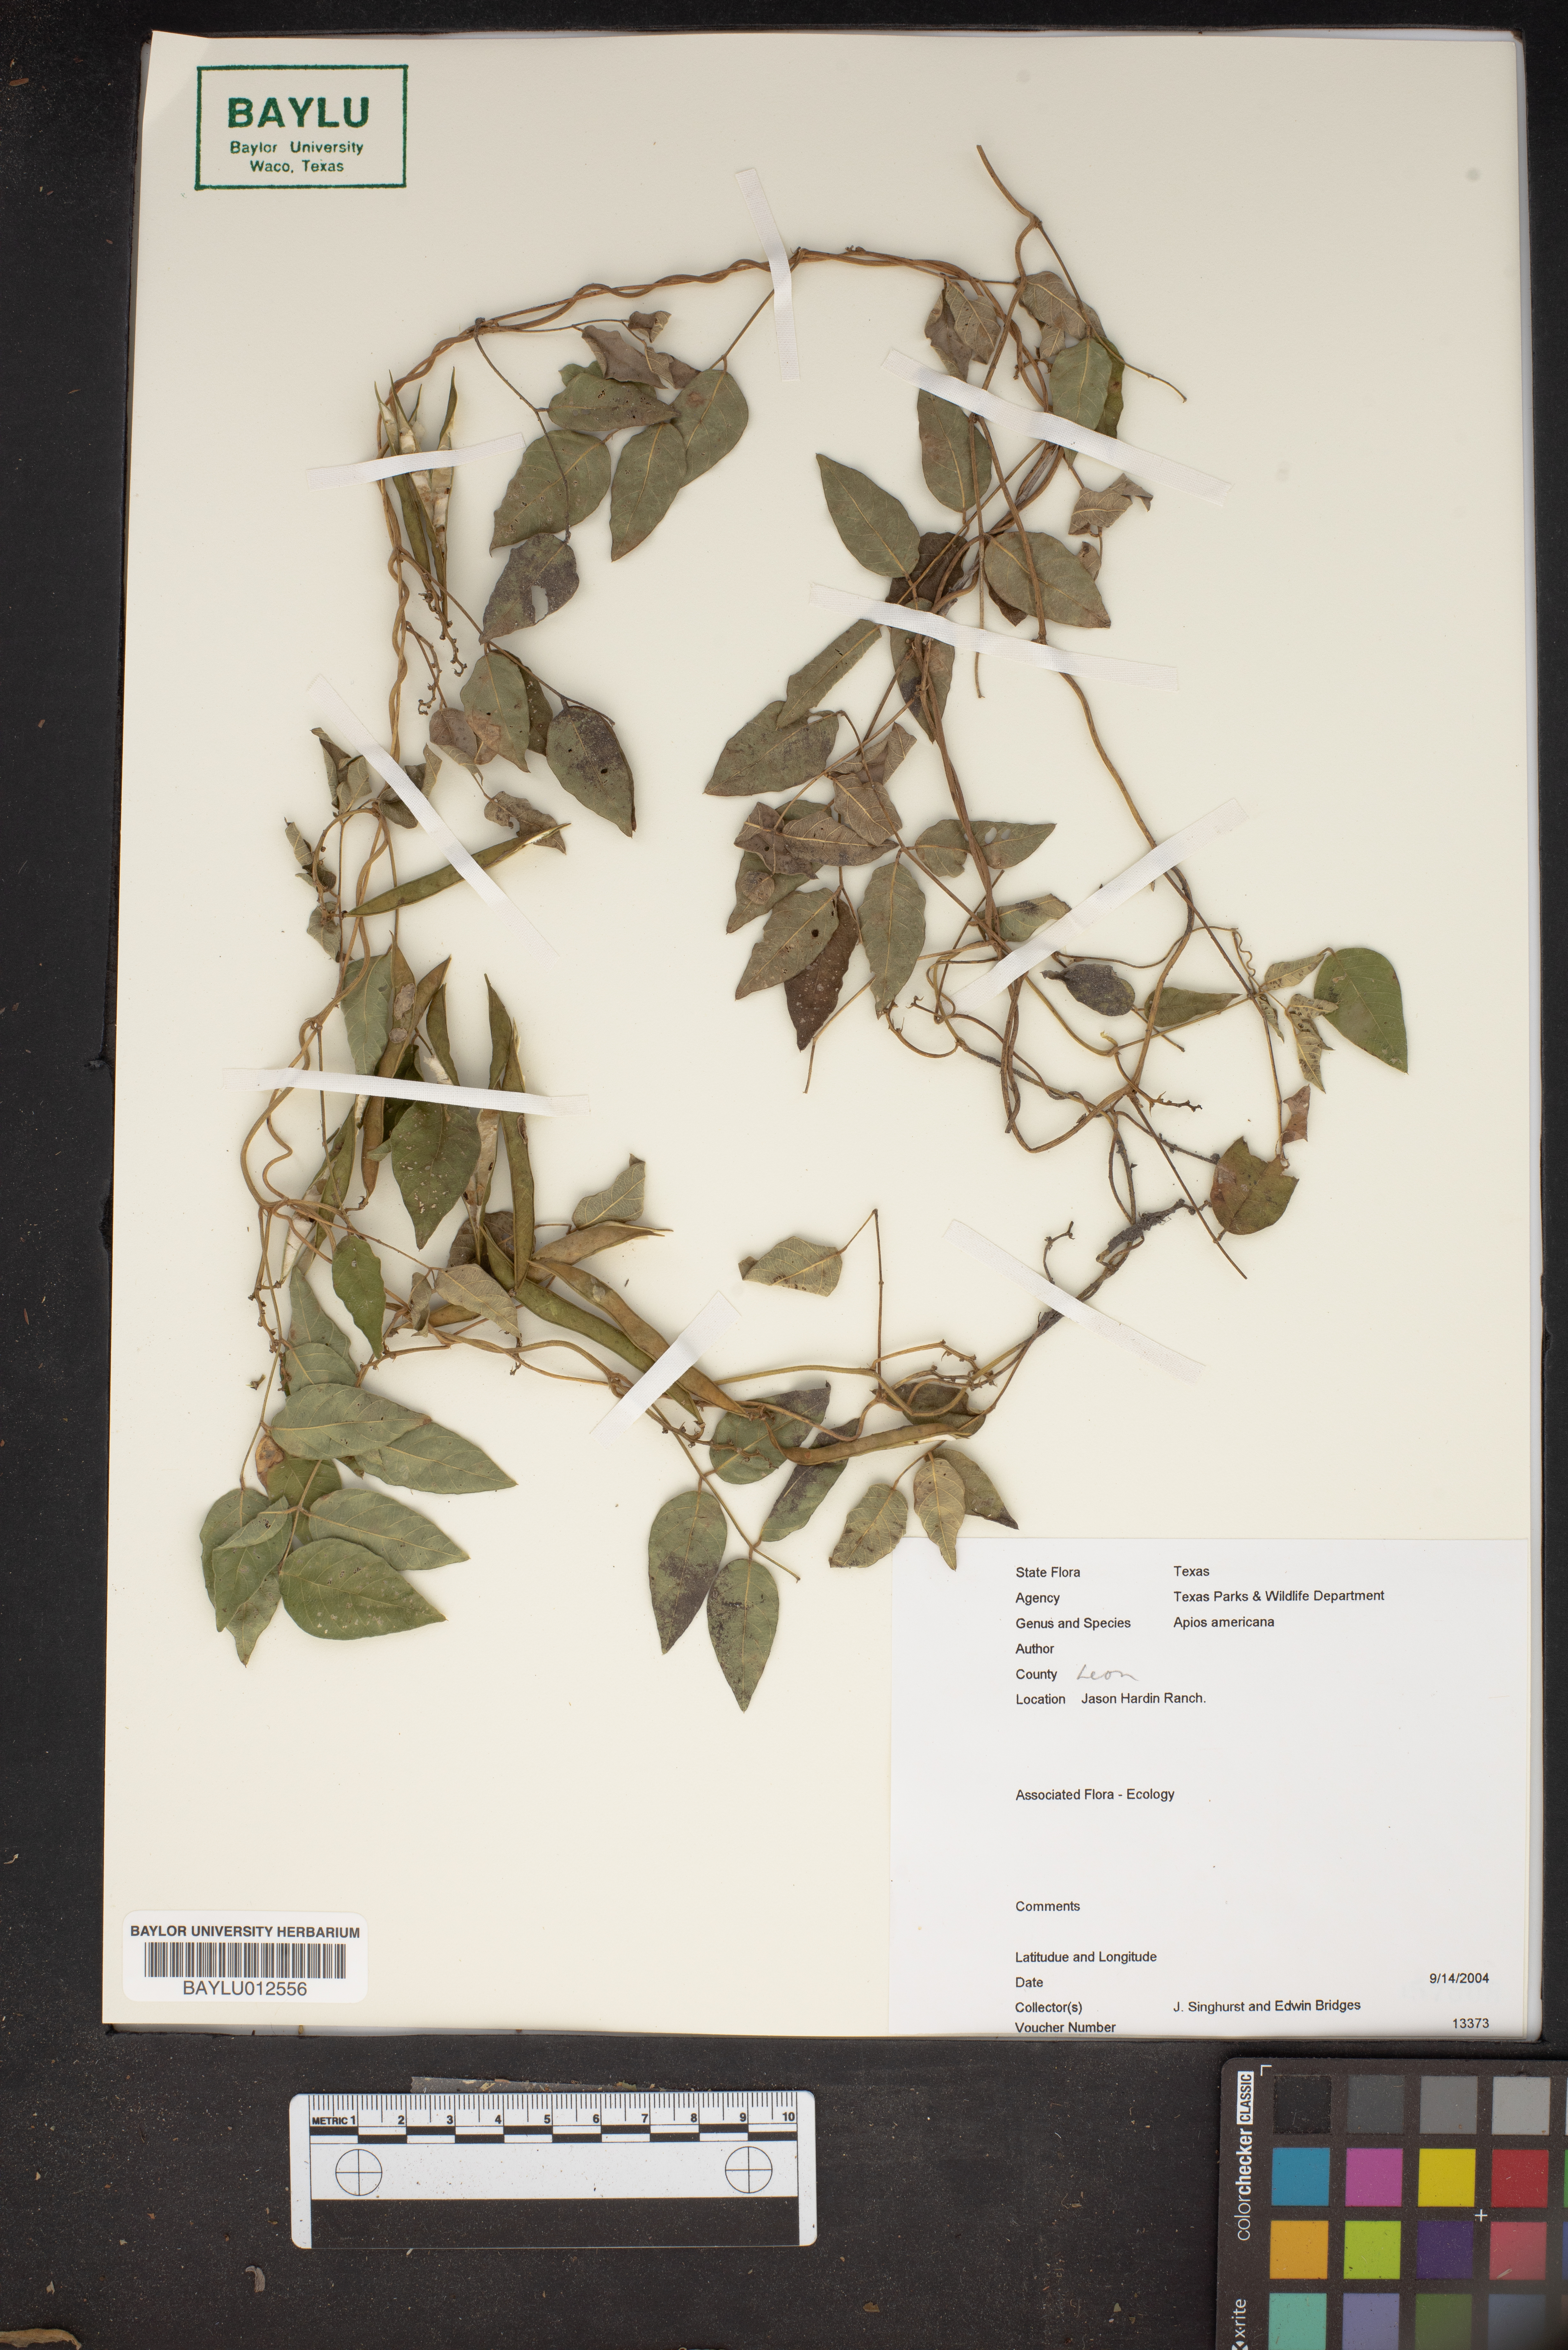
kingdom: Plantae
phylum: Tracheophyta
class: Magnoliopsida
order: Fabales
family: Fabaceae
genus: Apios
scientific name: Apios americana
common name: American potato-bean
